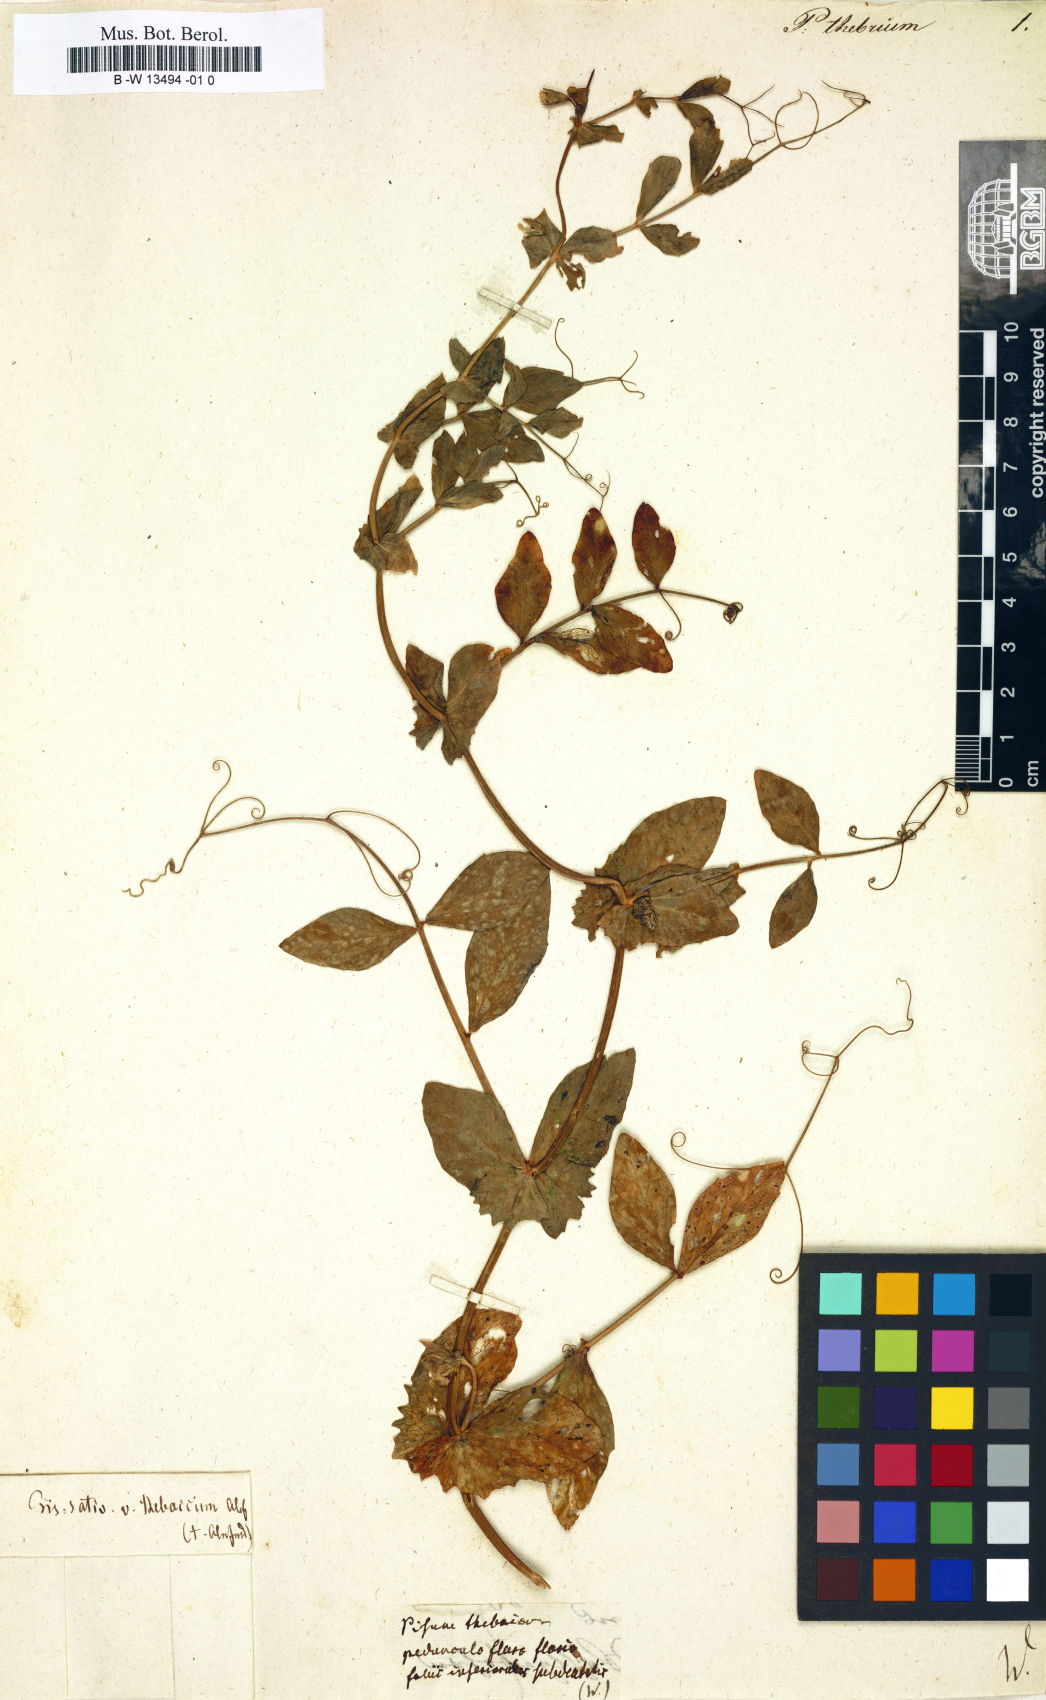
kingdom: Plantae
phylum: Tracheophyta
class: Magnoliopsida
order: Fabales
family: Fabaceae
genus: Lathyrus
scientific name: Lathyrus oleraceus
